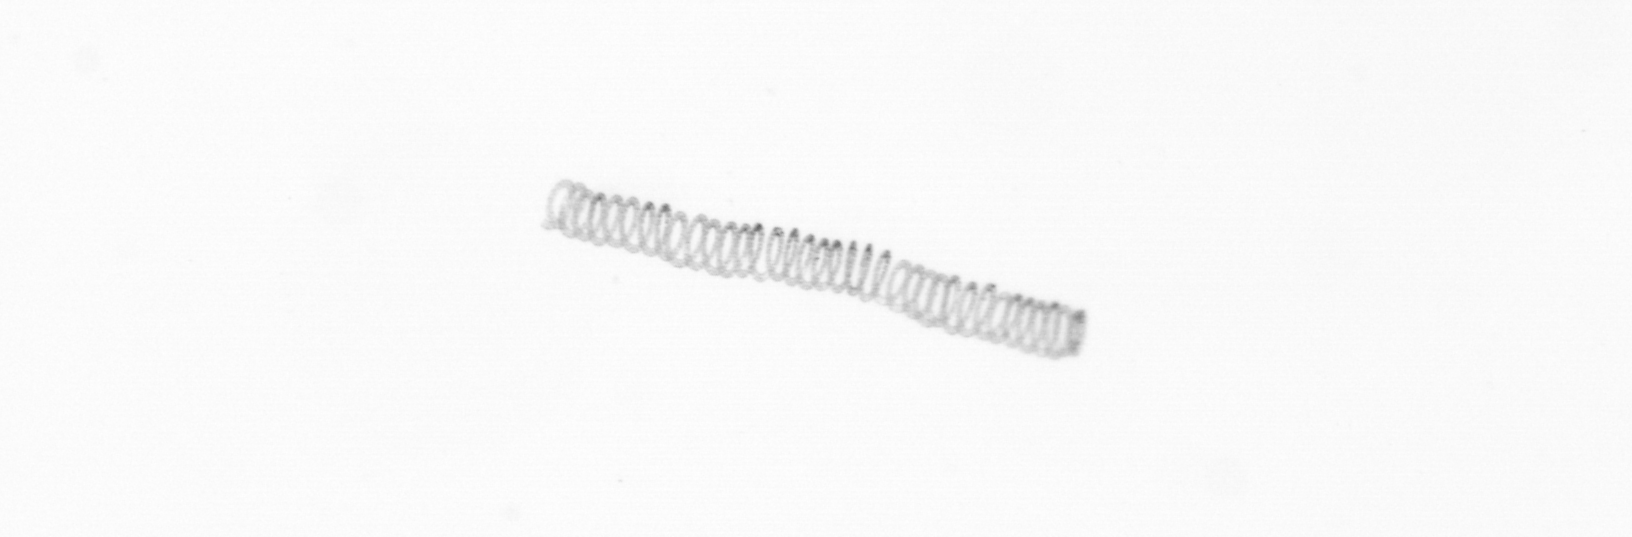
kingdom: Chromista
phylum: Ochrophyta
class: Bacillariophyceae
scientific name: Bacillariophyceae
